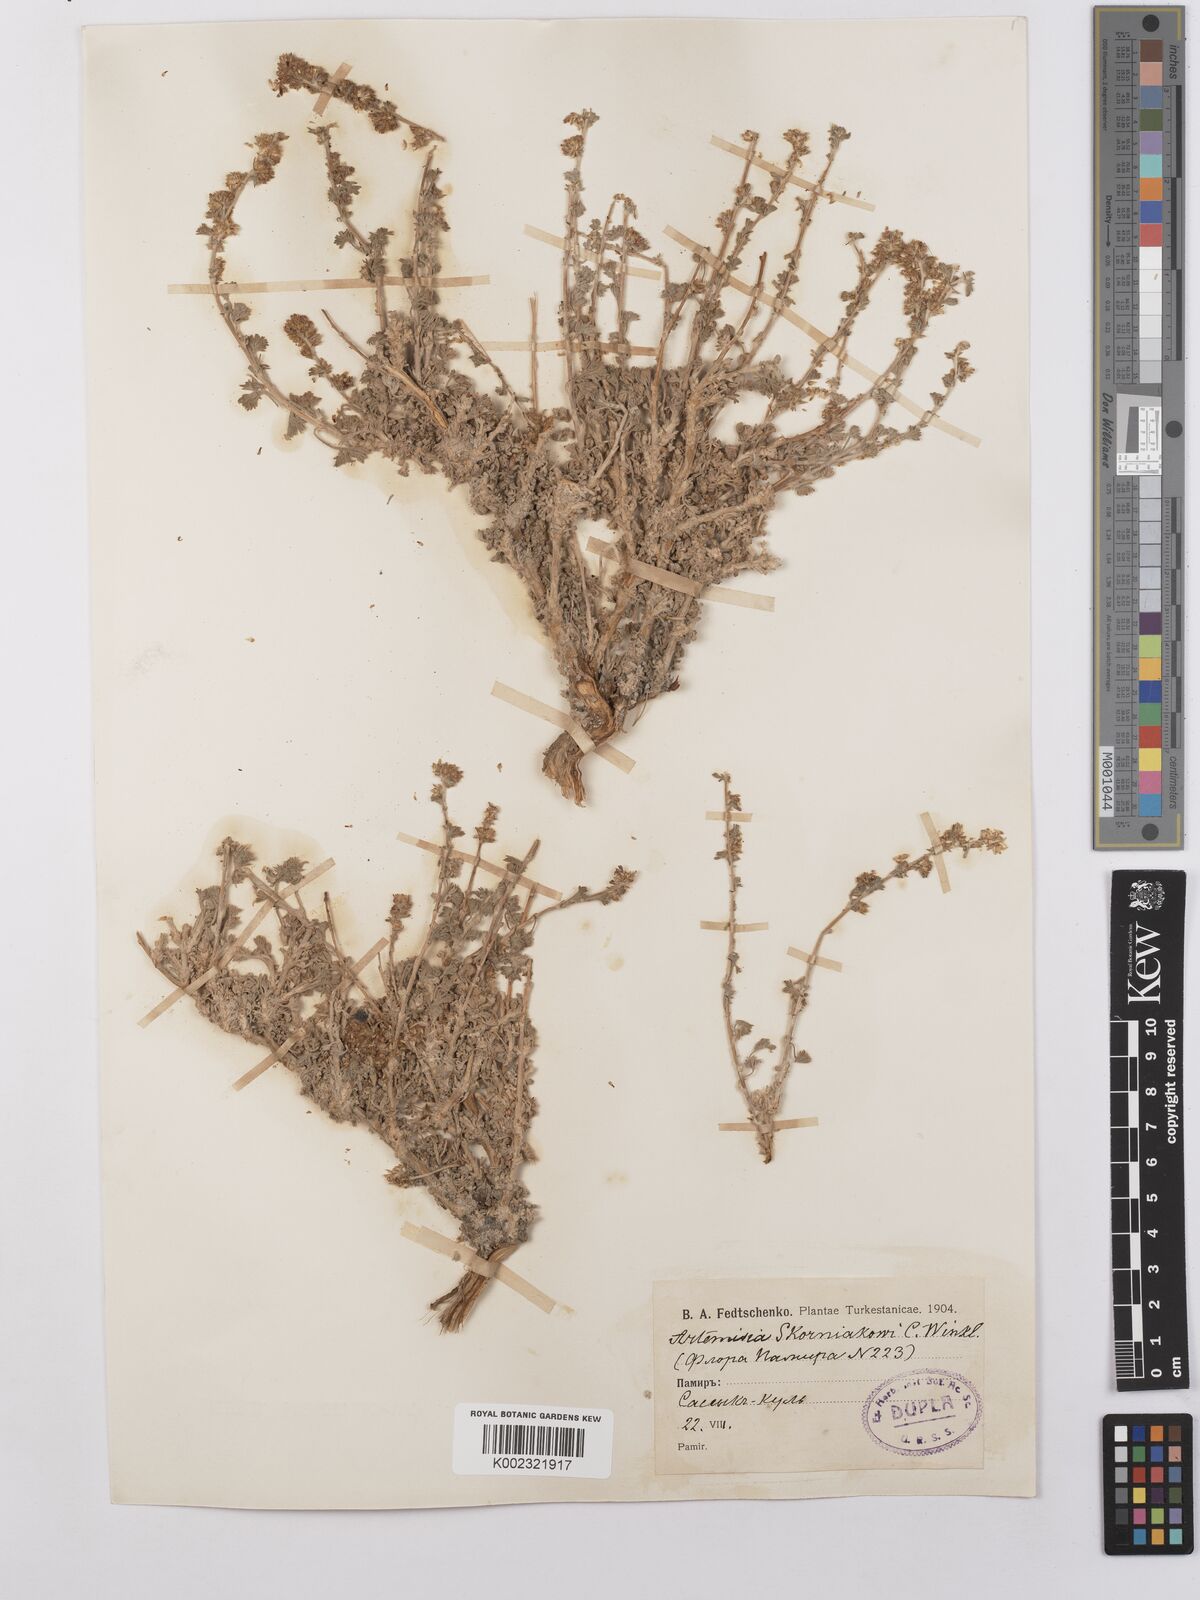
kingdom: Plantae
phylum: Tracheophyta
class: Magnoliopsida
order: Asterales
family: Asteraceae
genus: Artemisia
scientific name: Artemisia skorniakovii
